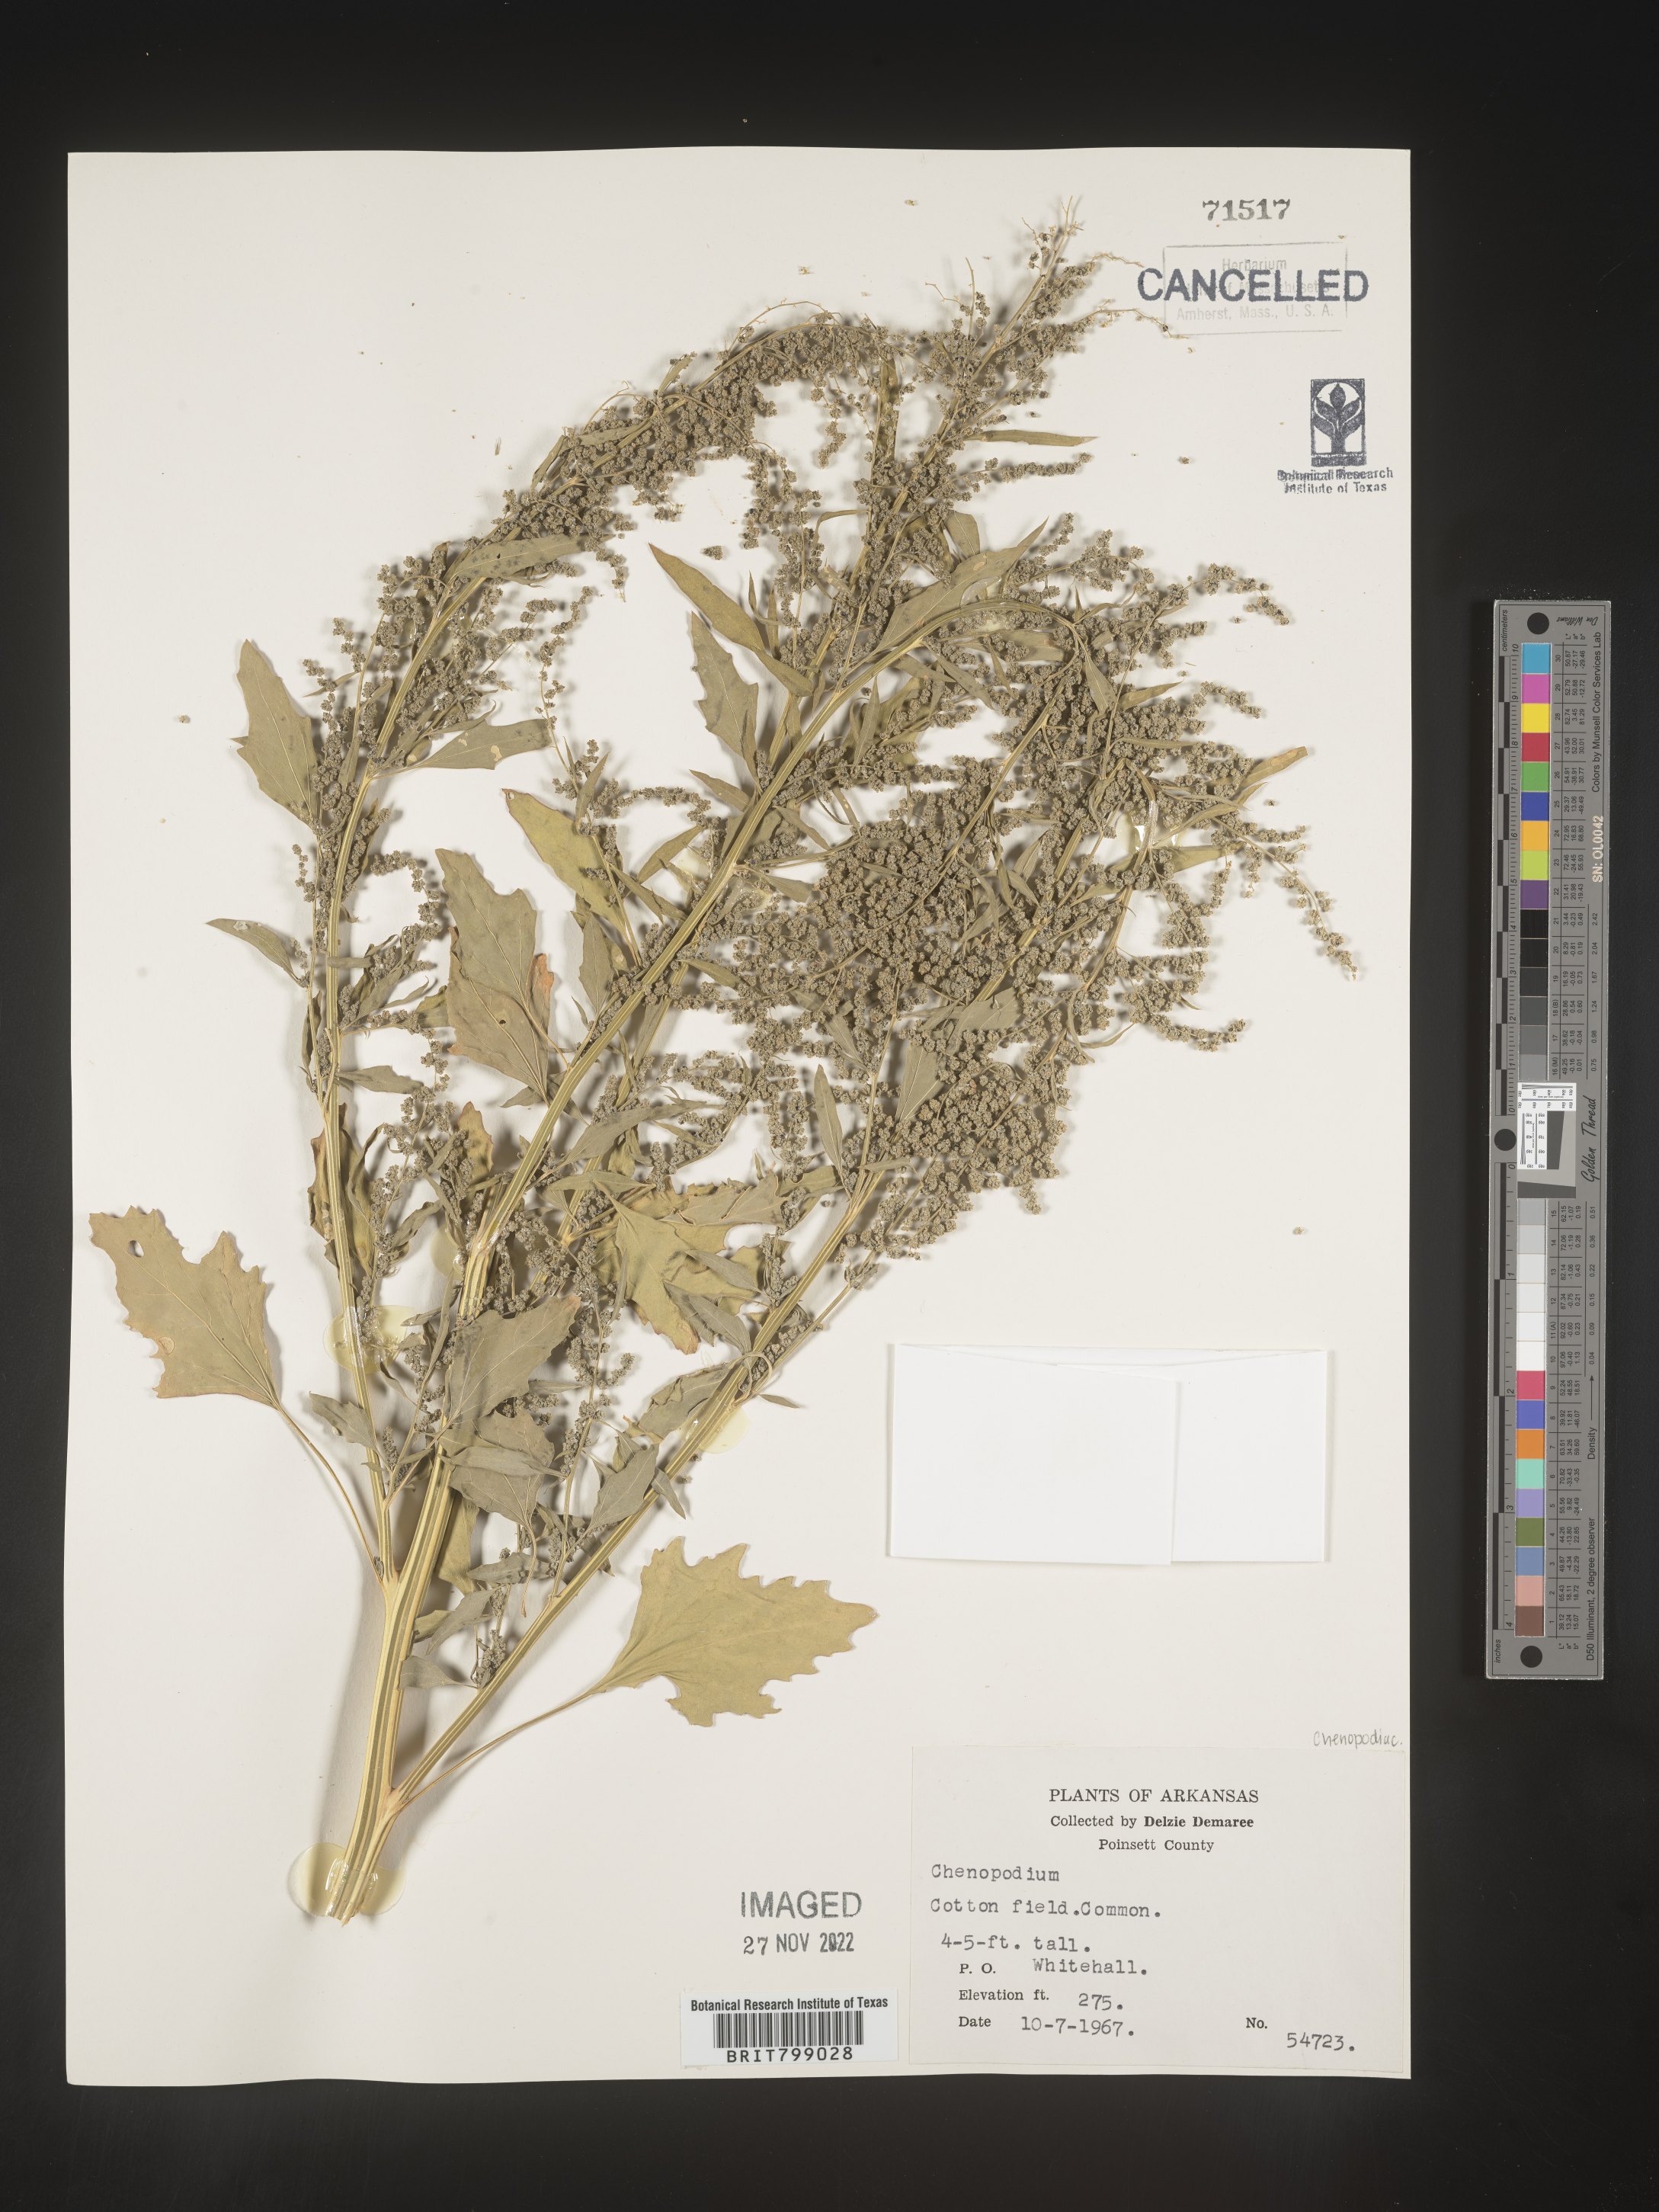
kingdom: Plantae
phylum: Tracheophyta
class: Magnoliopsida
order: Caryophyllales
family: Amaranthaceae
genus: Chenopodium
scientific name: Chenopodium
